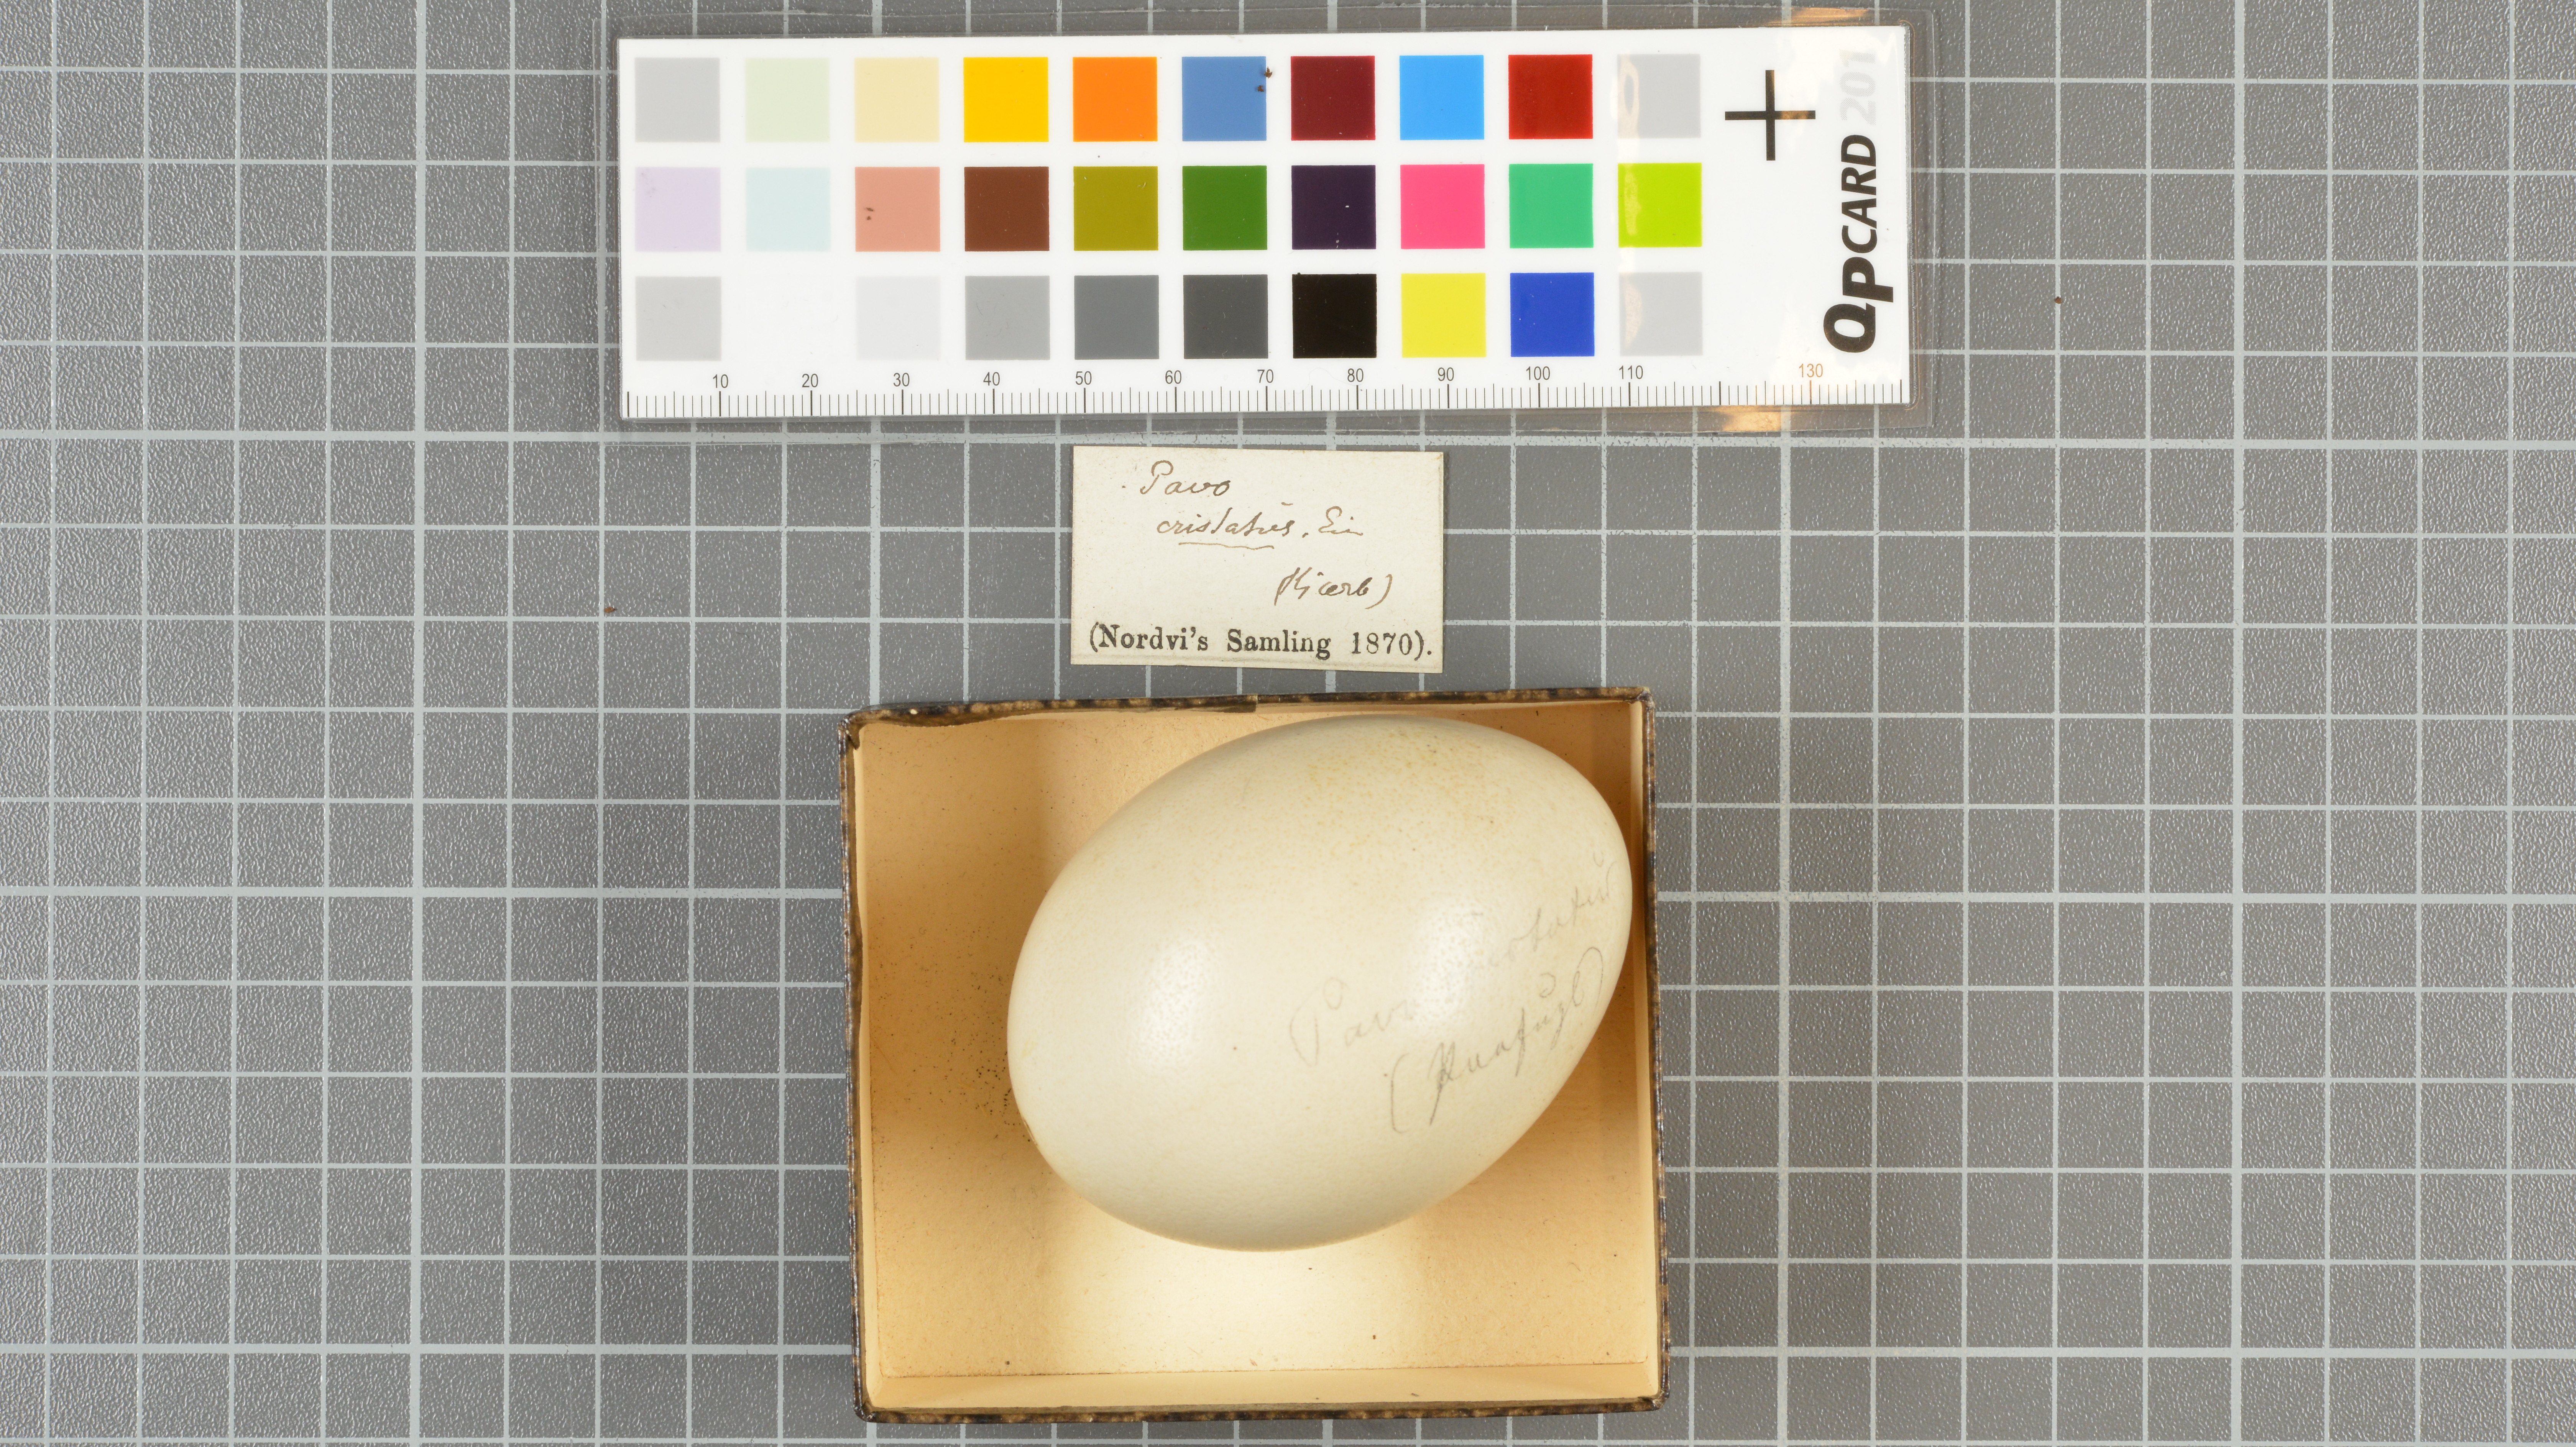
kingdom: Animalia
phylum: Chordata
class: Aves
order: Galliformes
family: Phasianidae
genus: Pavo
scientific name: Pavo cristatus
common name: Indian peafowl
